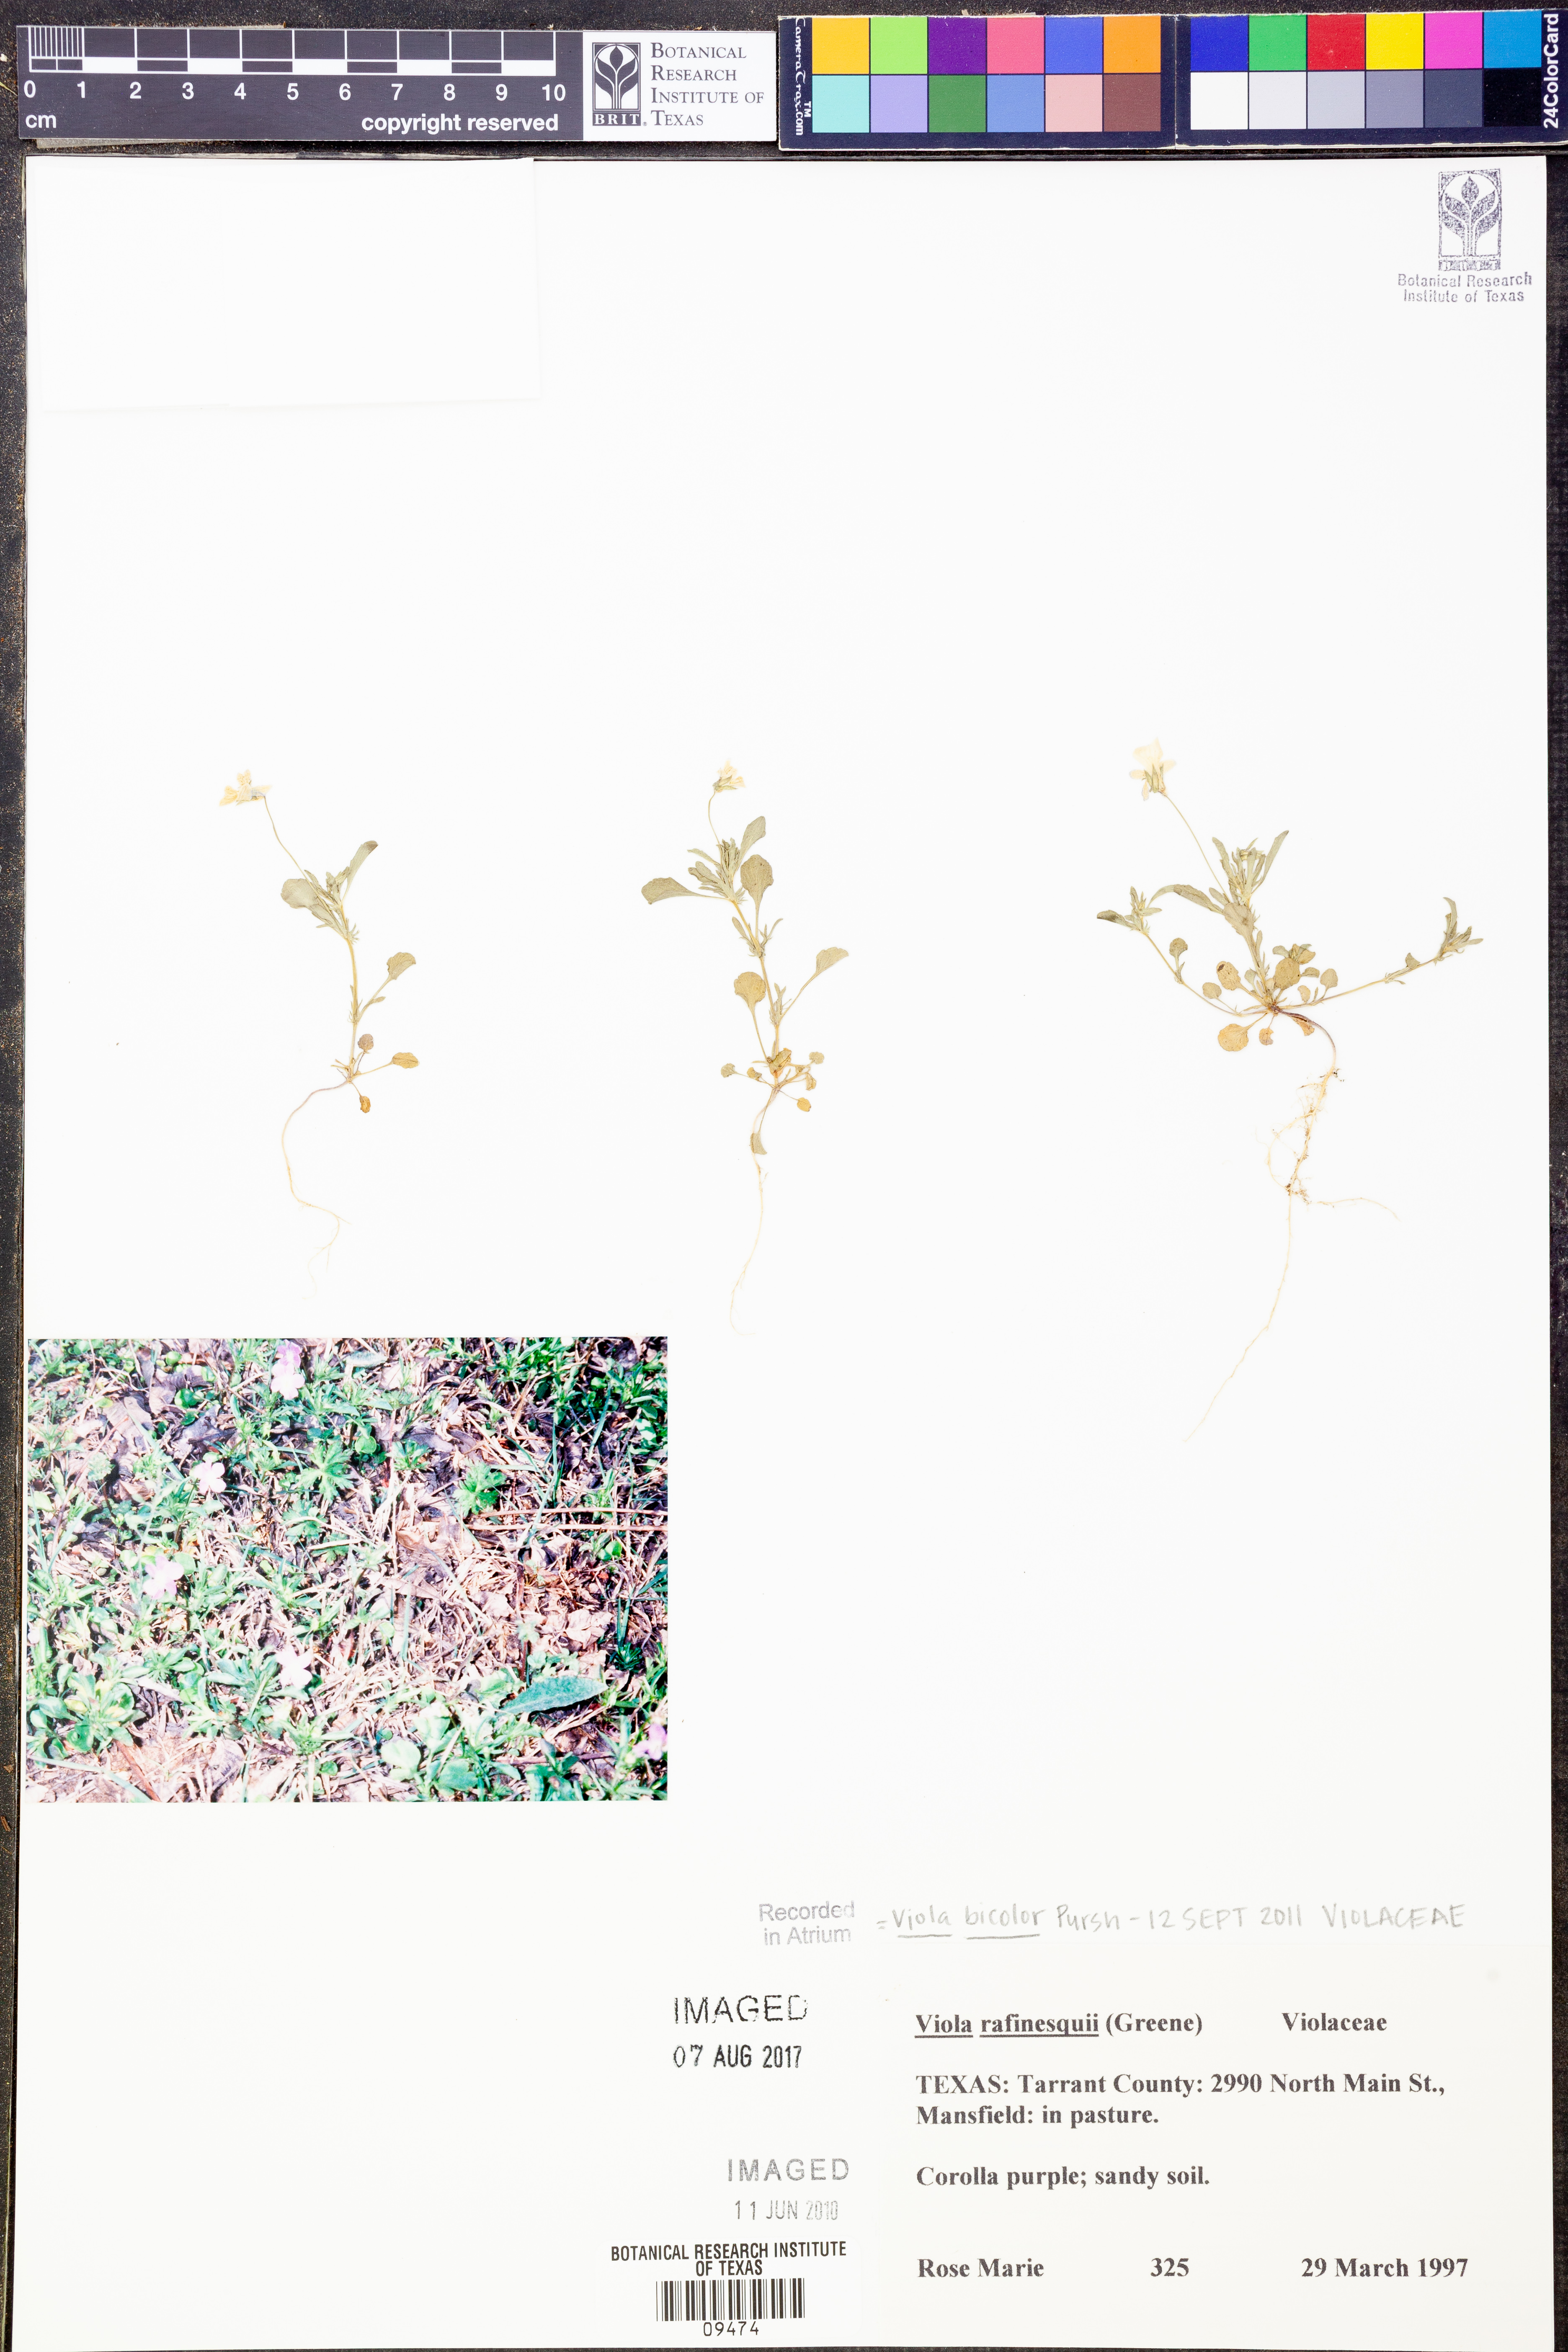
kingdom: Plantae
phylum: Tracheophyta
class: Magnoliopsida
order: Malpighiales
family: Violaceae
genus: Viola
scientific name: Viola rafinesquei
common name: American field pansy
